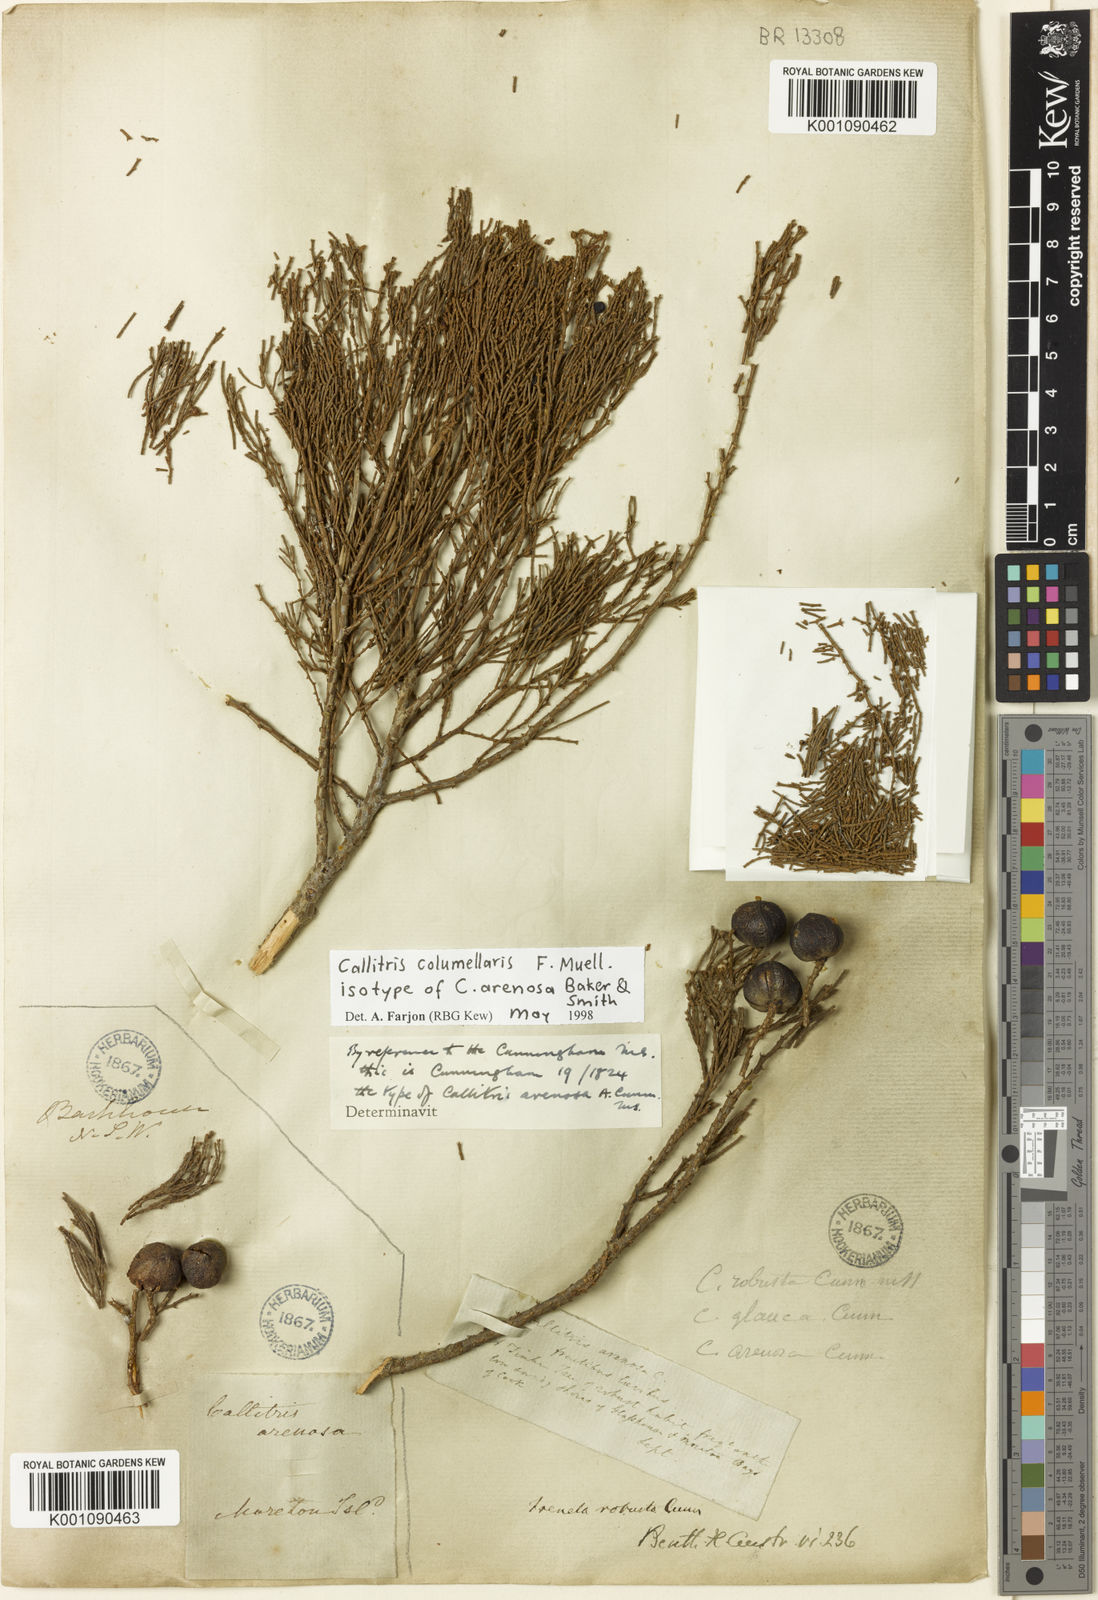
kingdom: Plantae
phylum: Tracheophyta
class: Pinopsida
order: Pinales
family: Cupressaceae
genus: Callitris
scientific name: Callitris columellaris
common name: White cypress-pine
